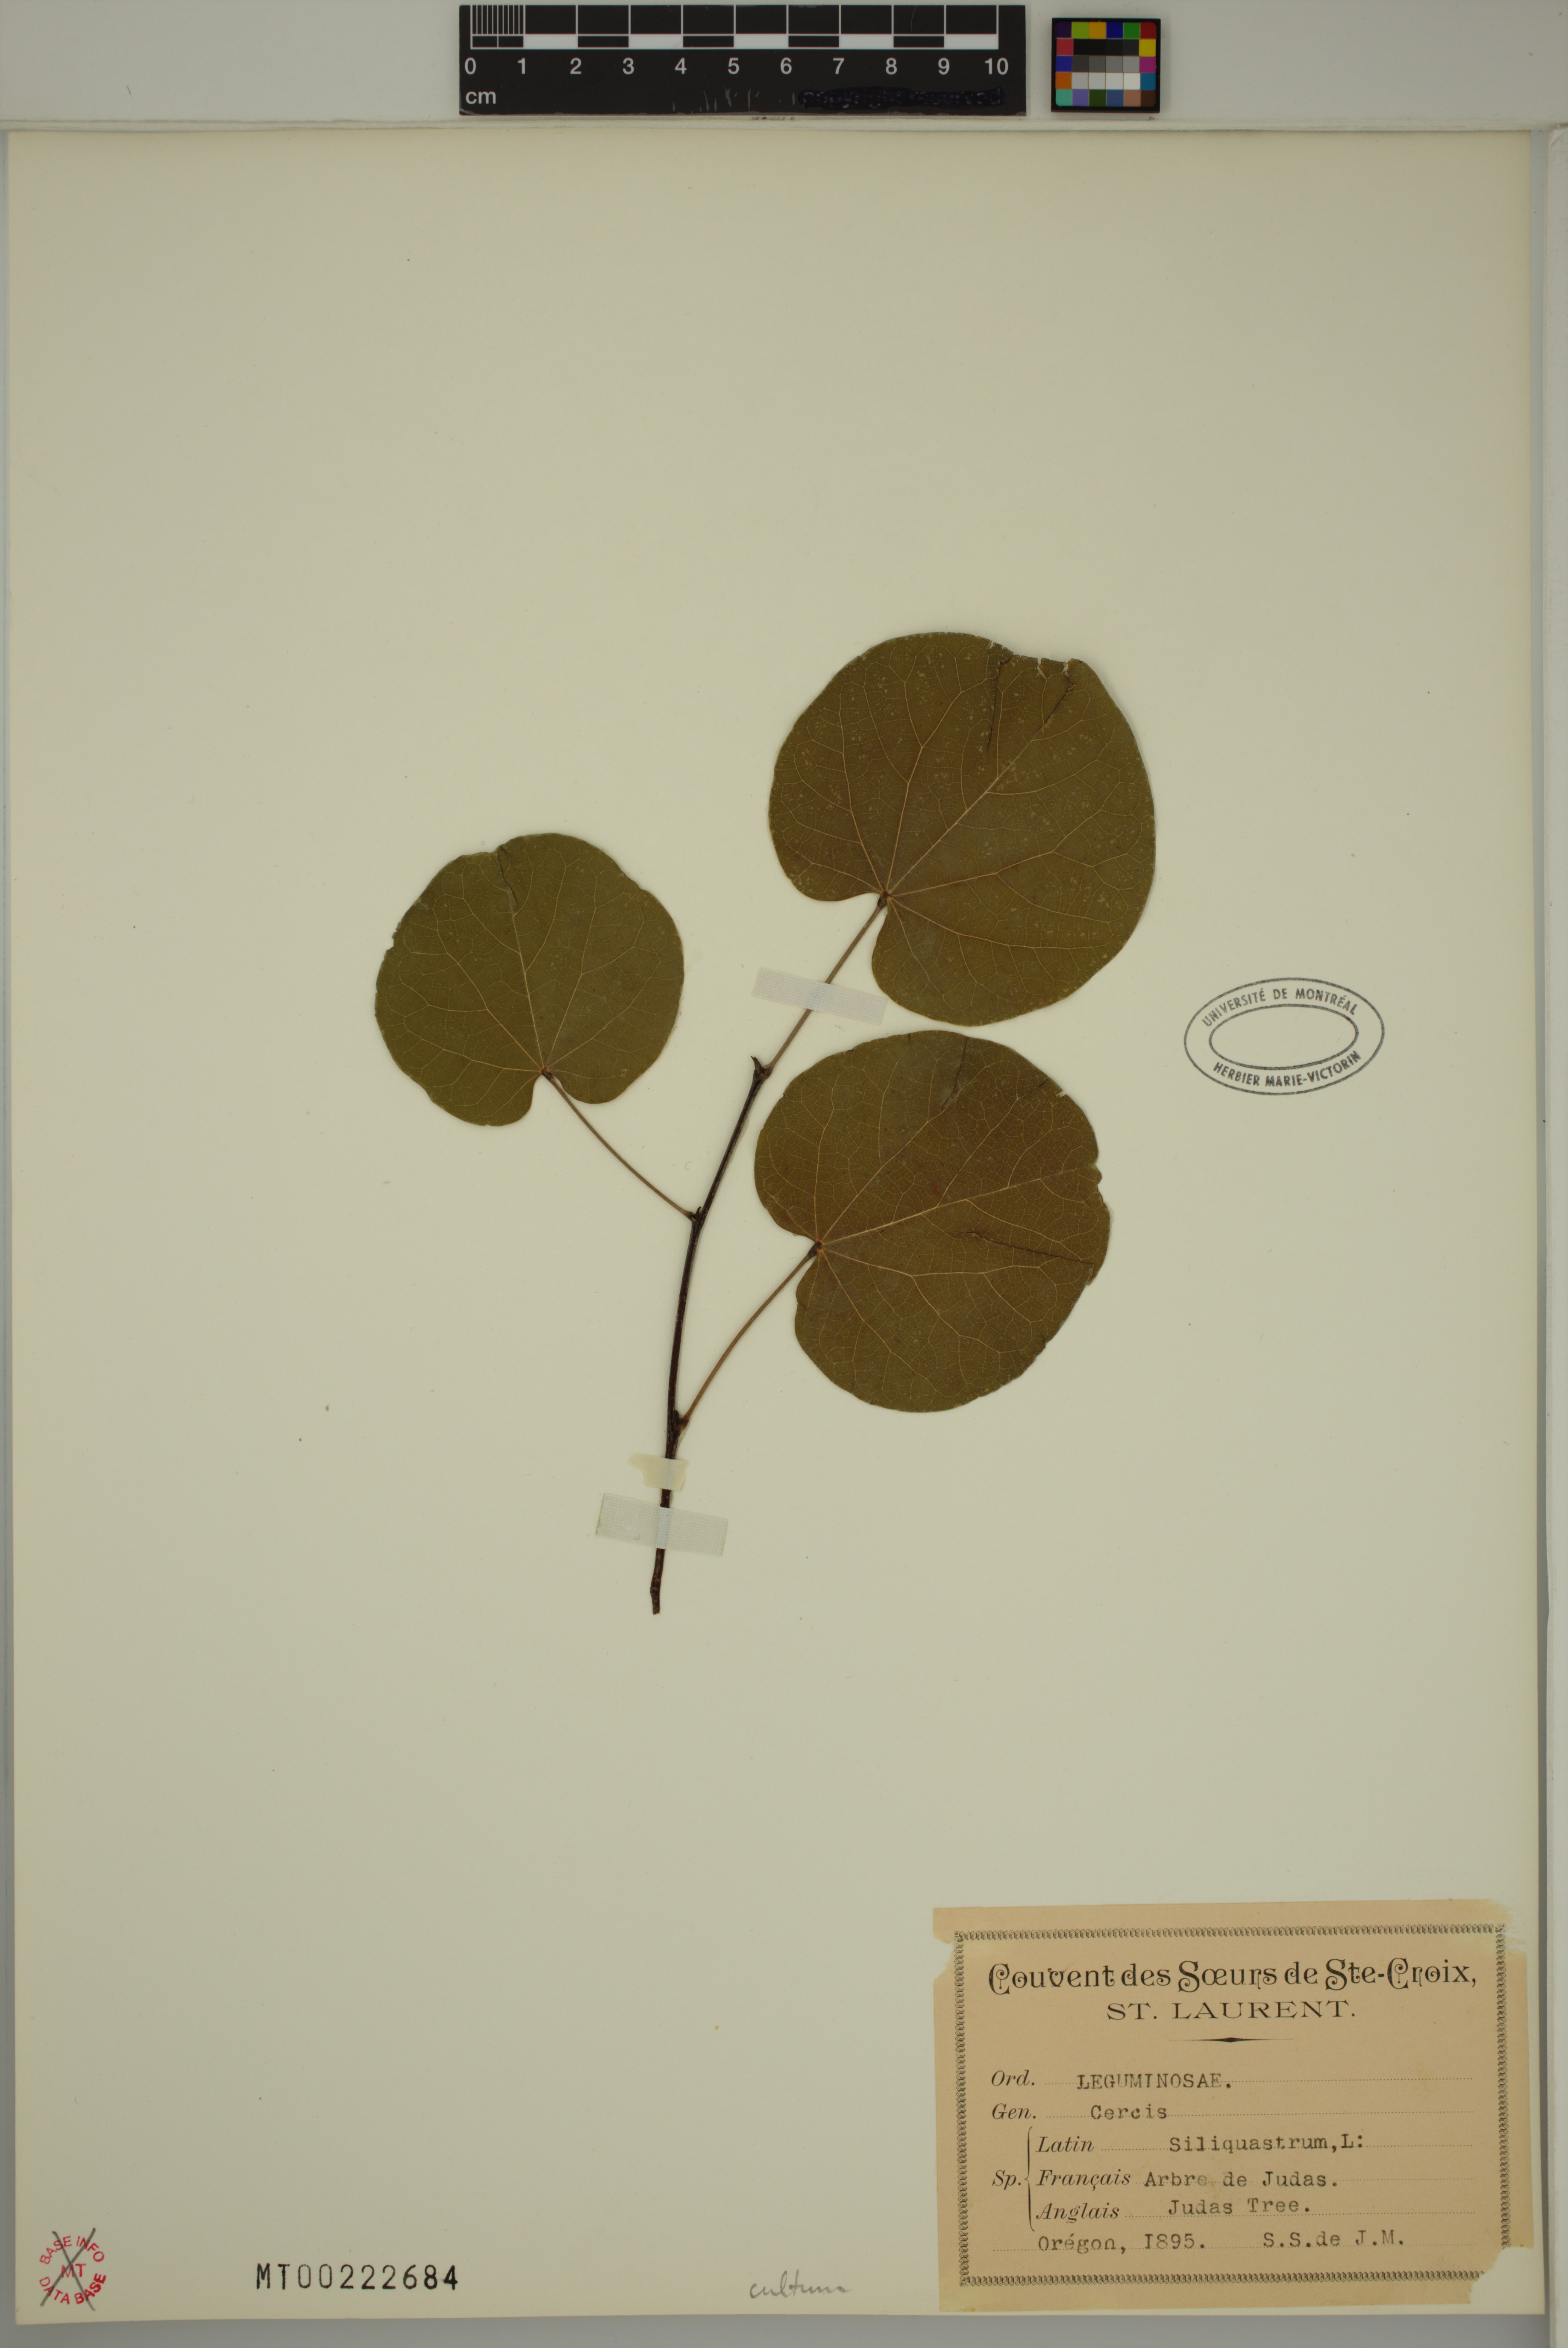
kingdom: Plantae
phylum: Tracheophyta
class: Magnoliopsida
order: Fabales
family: Fabaceae
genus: Cercis
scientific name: Cercis siliquastrum
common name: Judas tree
